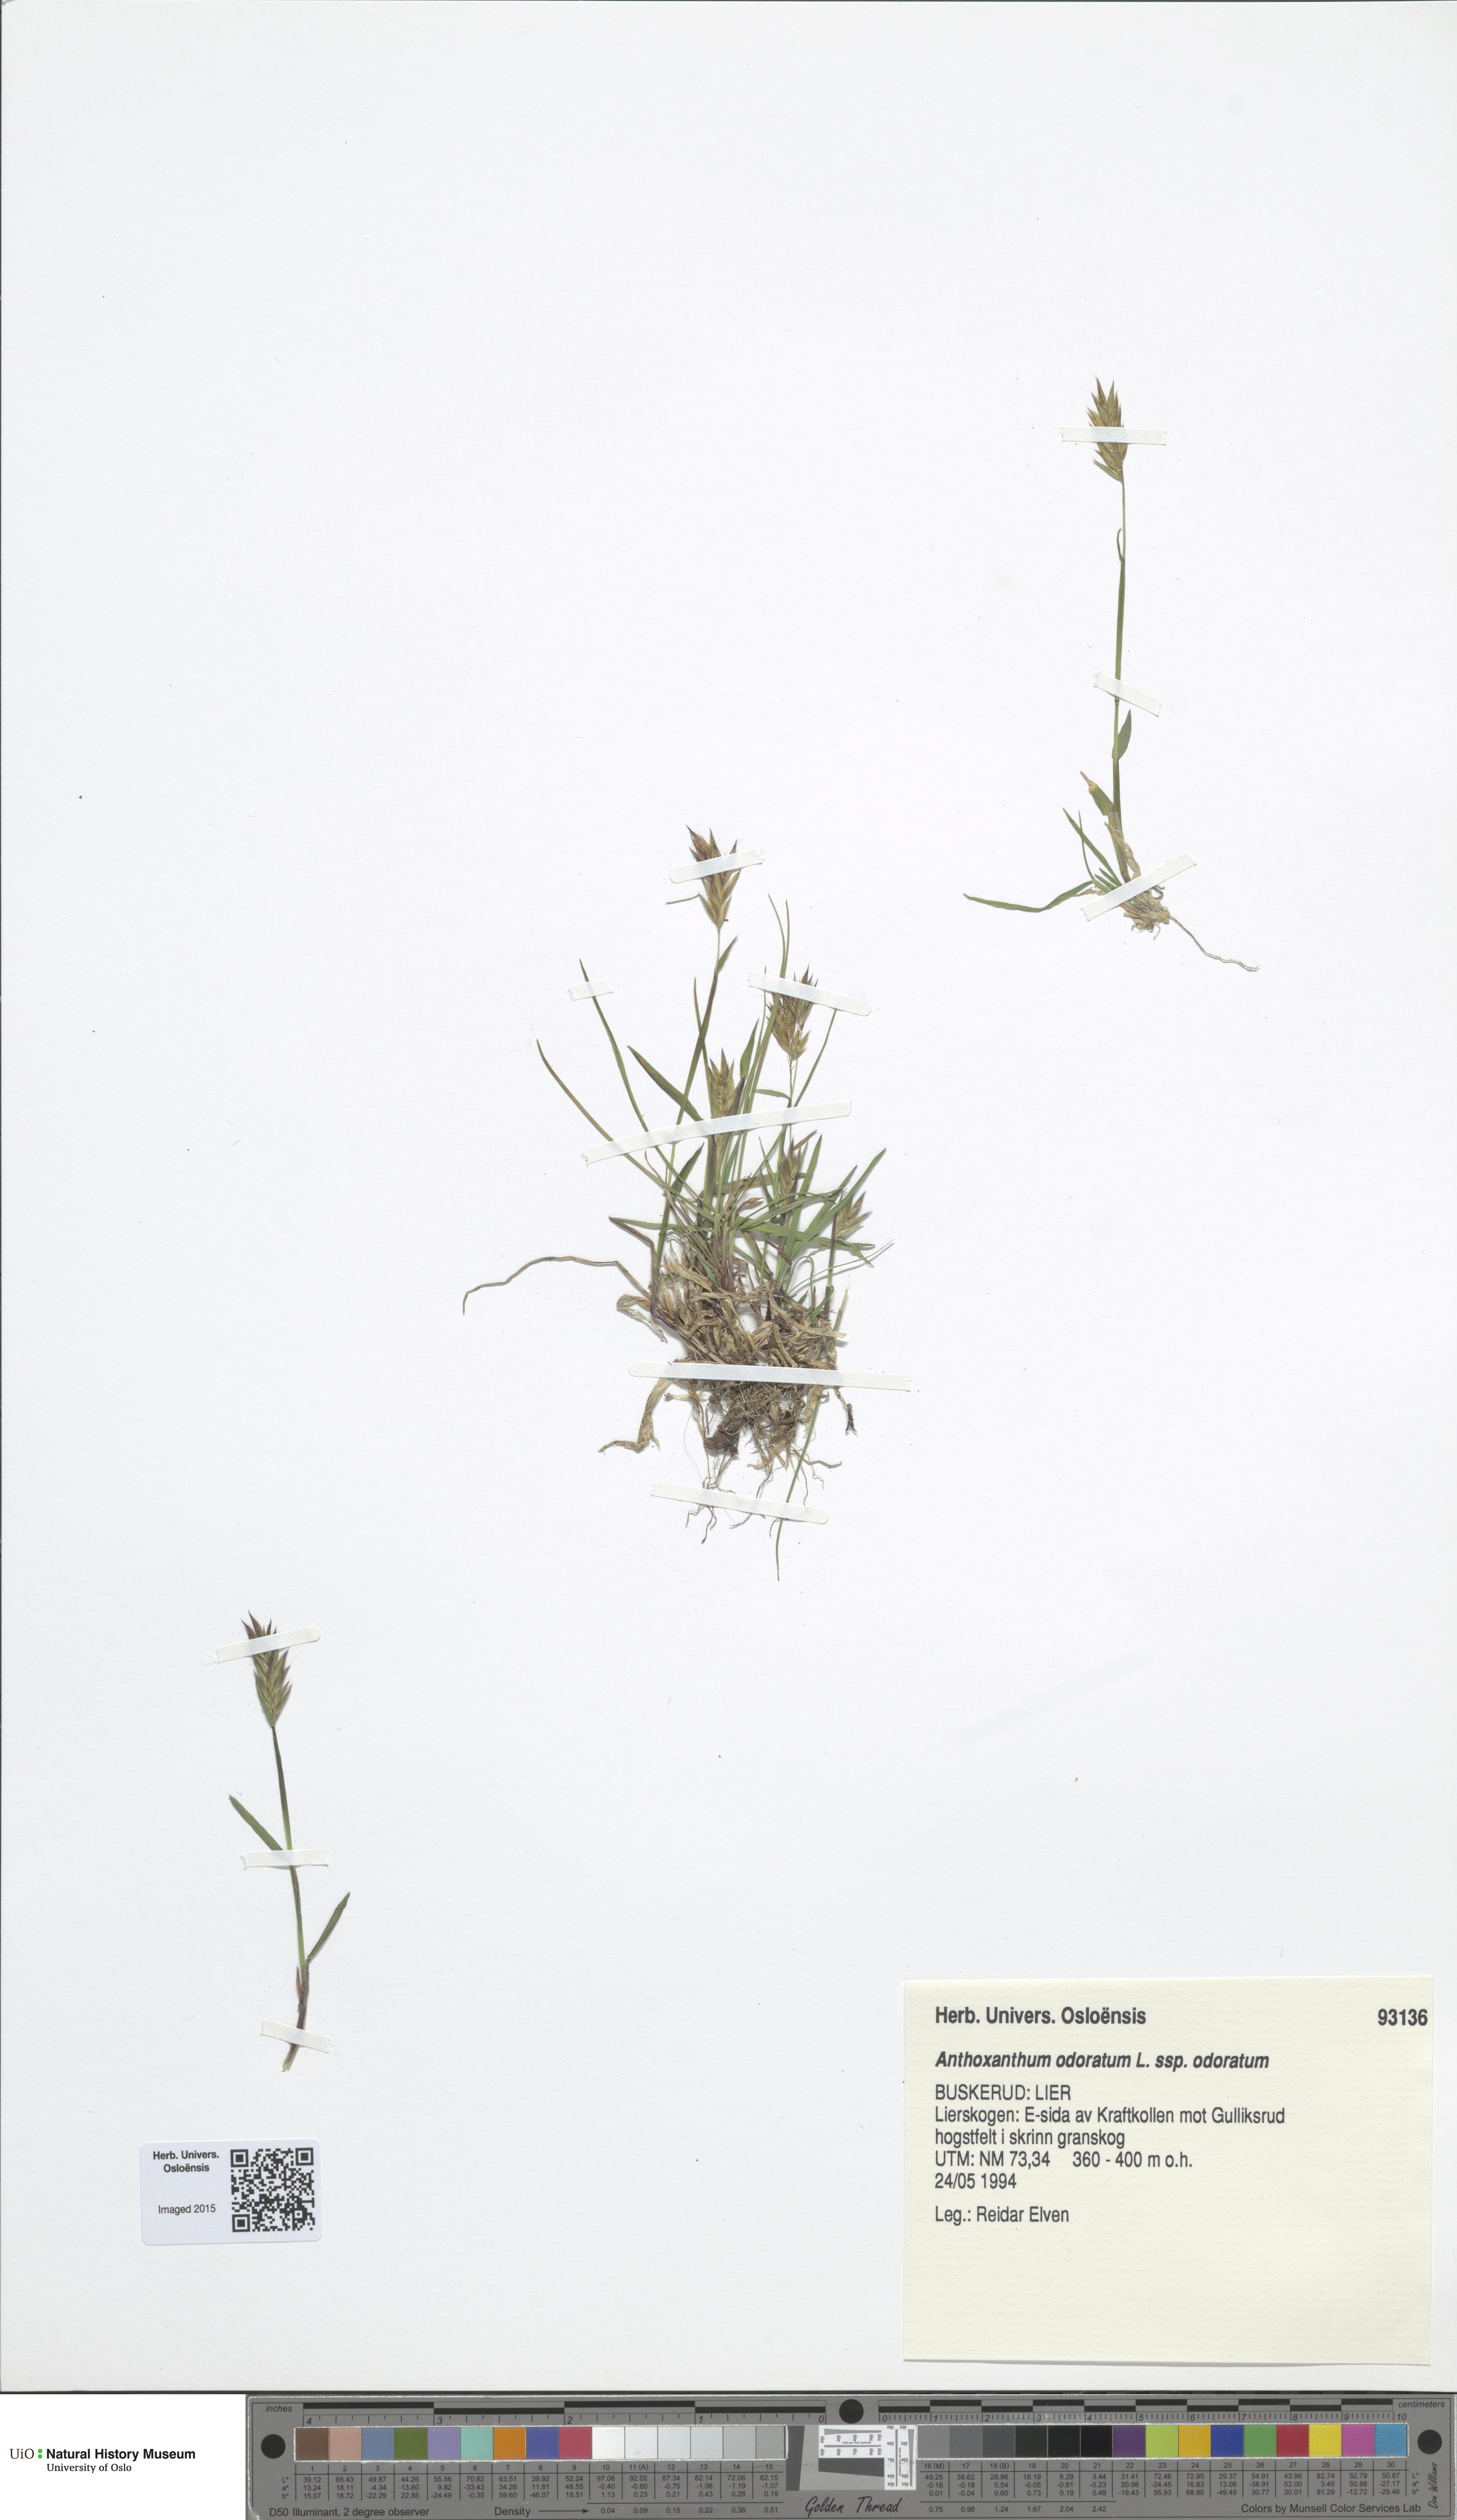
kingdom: Plantae
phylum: Tracheophyta
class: Liliopsida
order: Poales
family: Poaceae
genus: Anthoxanthum
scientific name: Anthoxanthum odoratum
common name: Sweet vernalgrass
